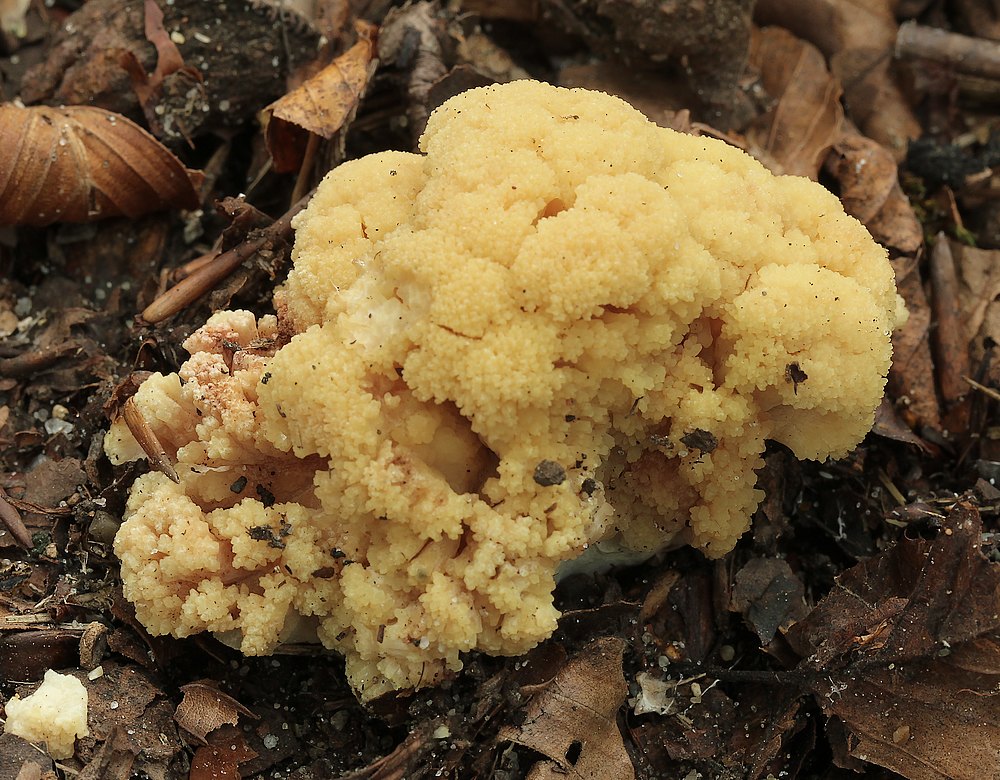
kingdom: Fungi
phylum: Basidiomycota
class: Agaricomycetes
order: Gomphales
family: Gomphaceae
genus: Ramaria
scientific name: Ramaria sanguinea
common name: blodplettet koralsvamp
